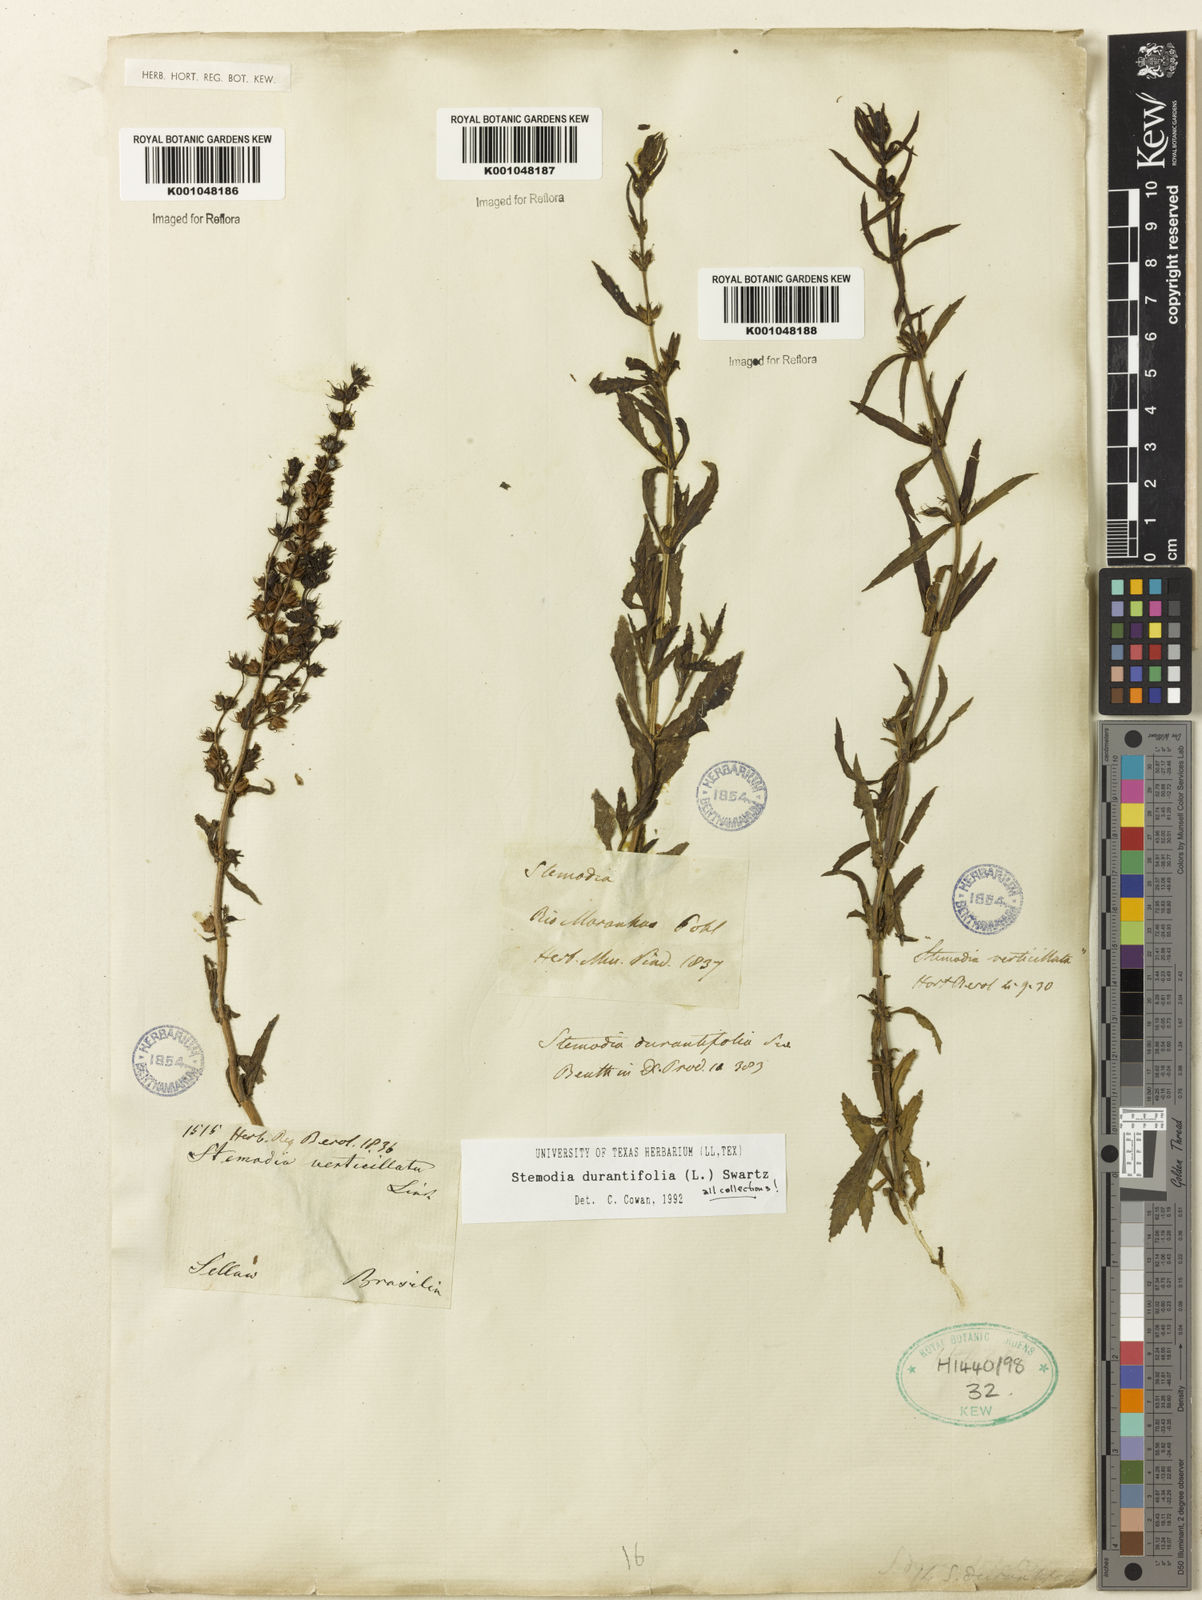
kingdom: Plantae
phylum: Tracheophyta
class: Magnoliopsida
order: Lamiales
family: Plantaginaceae
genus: Stemodia
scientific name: Stemodia durantifolia
